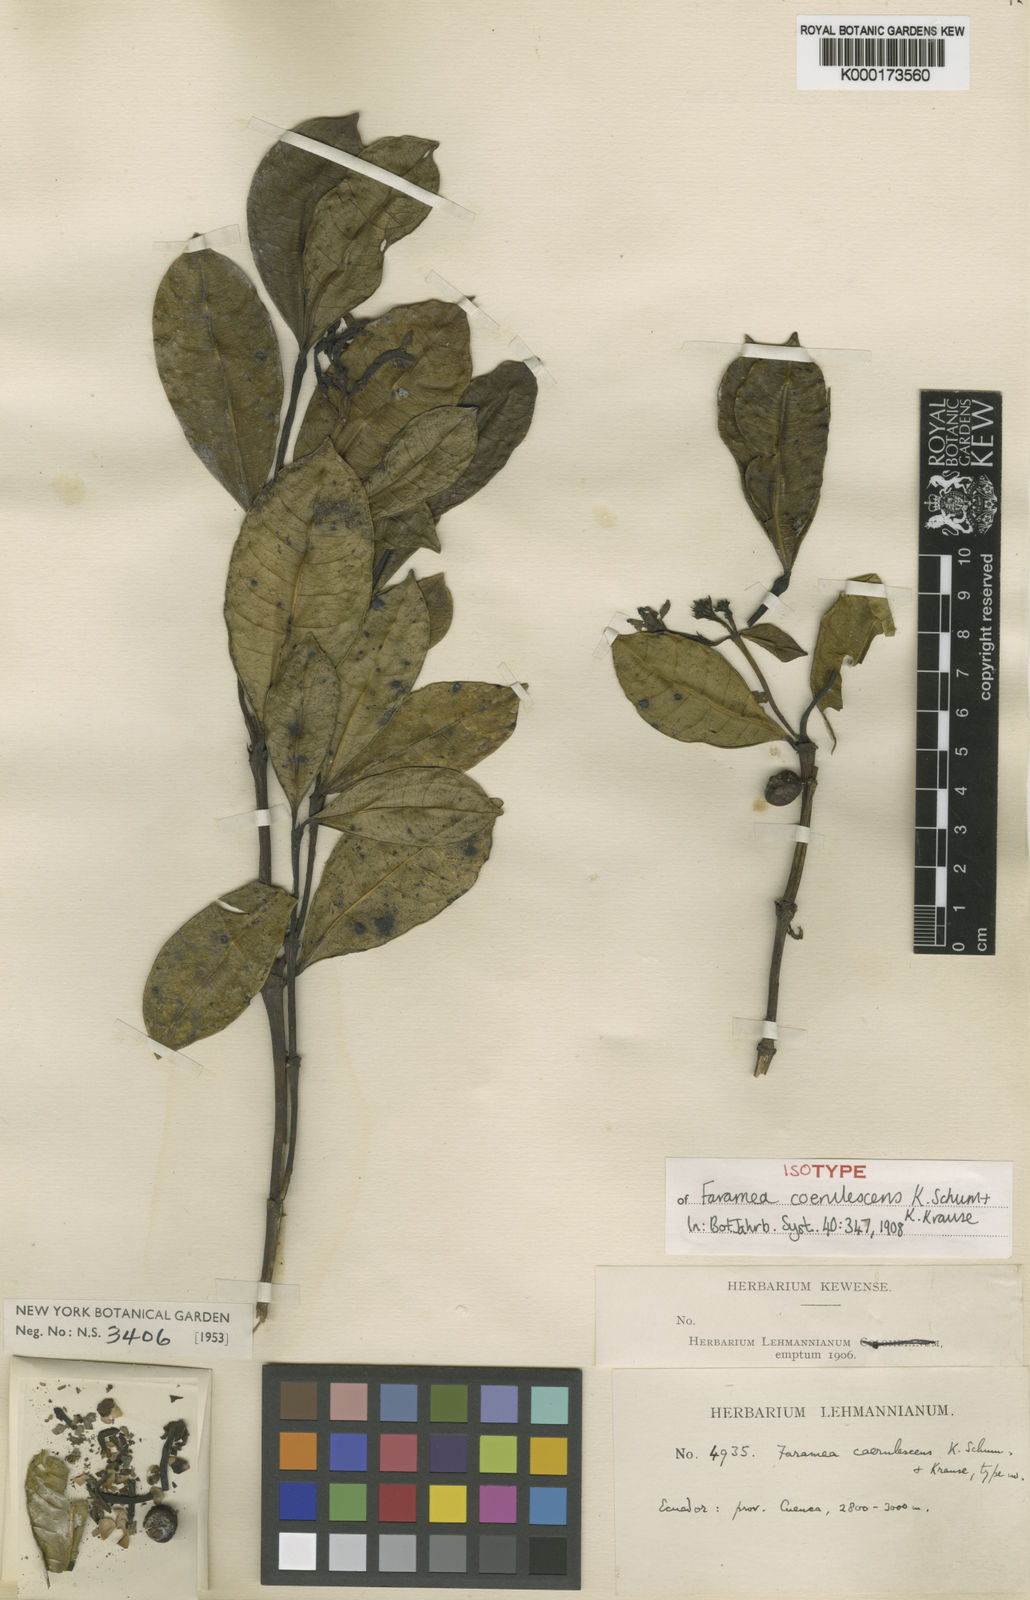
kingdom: Plantae
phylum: Tracheophyta
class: Magnoliopsida
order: Gentianales
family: Rubiaceae
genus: Faramea
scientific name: Faramea coerulescens
